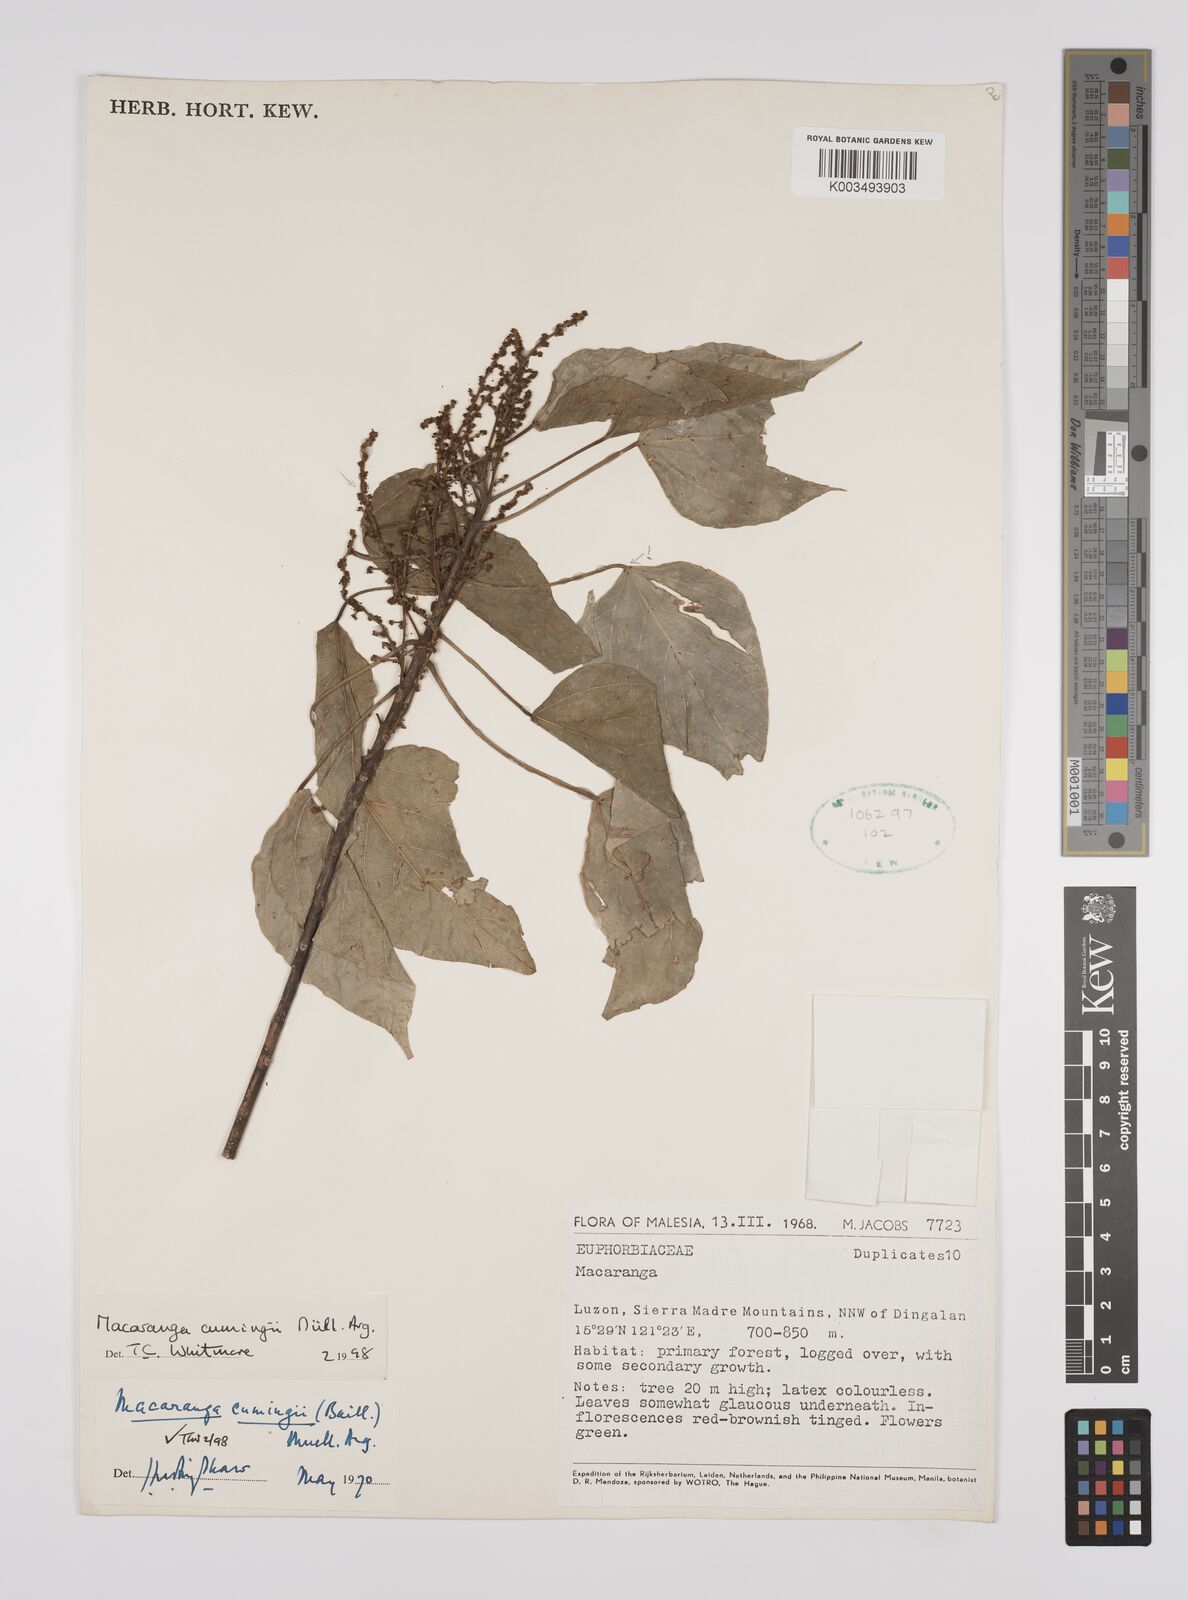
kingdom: Plantae
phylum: Tracheophyta
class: Magnoliopsida
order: Malpighiales
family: Euphorbiaceae
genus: Macaranga
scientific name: Macaranga cumingii
